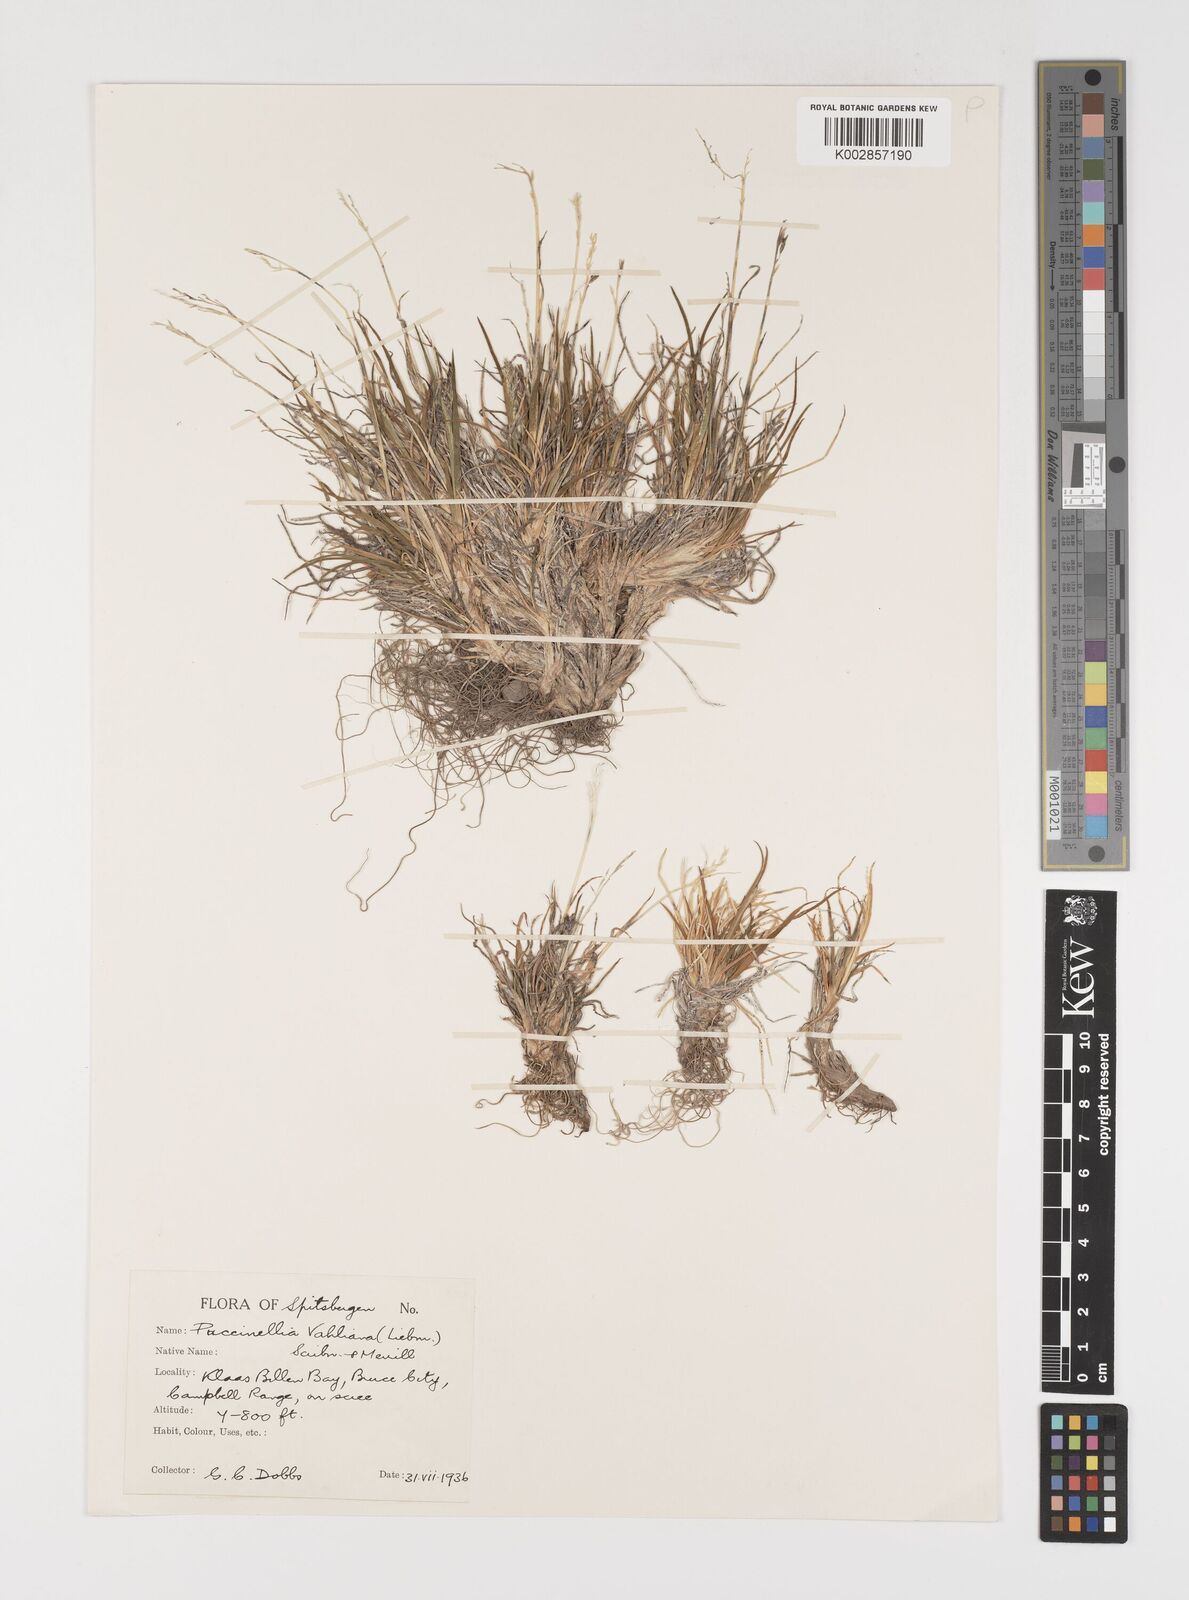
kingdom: Plantae
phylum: Tracheophyta
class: Liliopsida
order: Poales
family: Poaceae
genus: Puccinellia
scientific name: Puccinellia vahliana
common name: Vahl's alkaligrass
